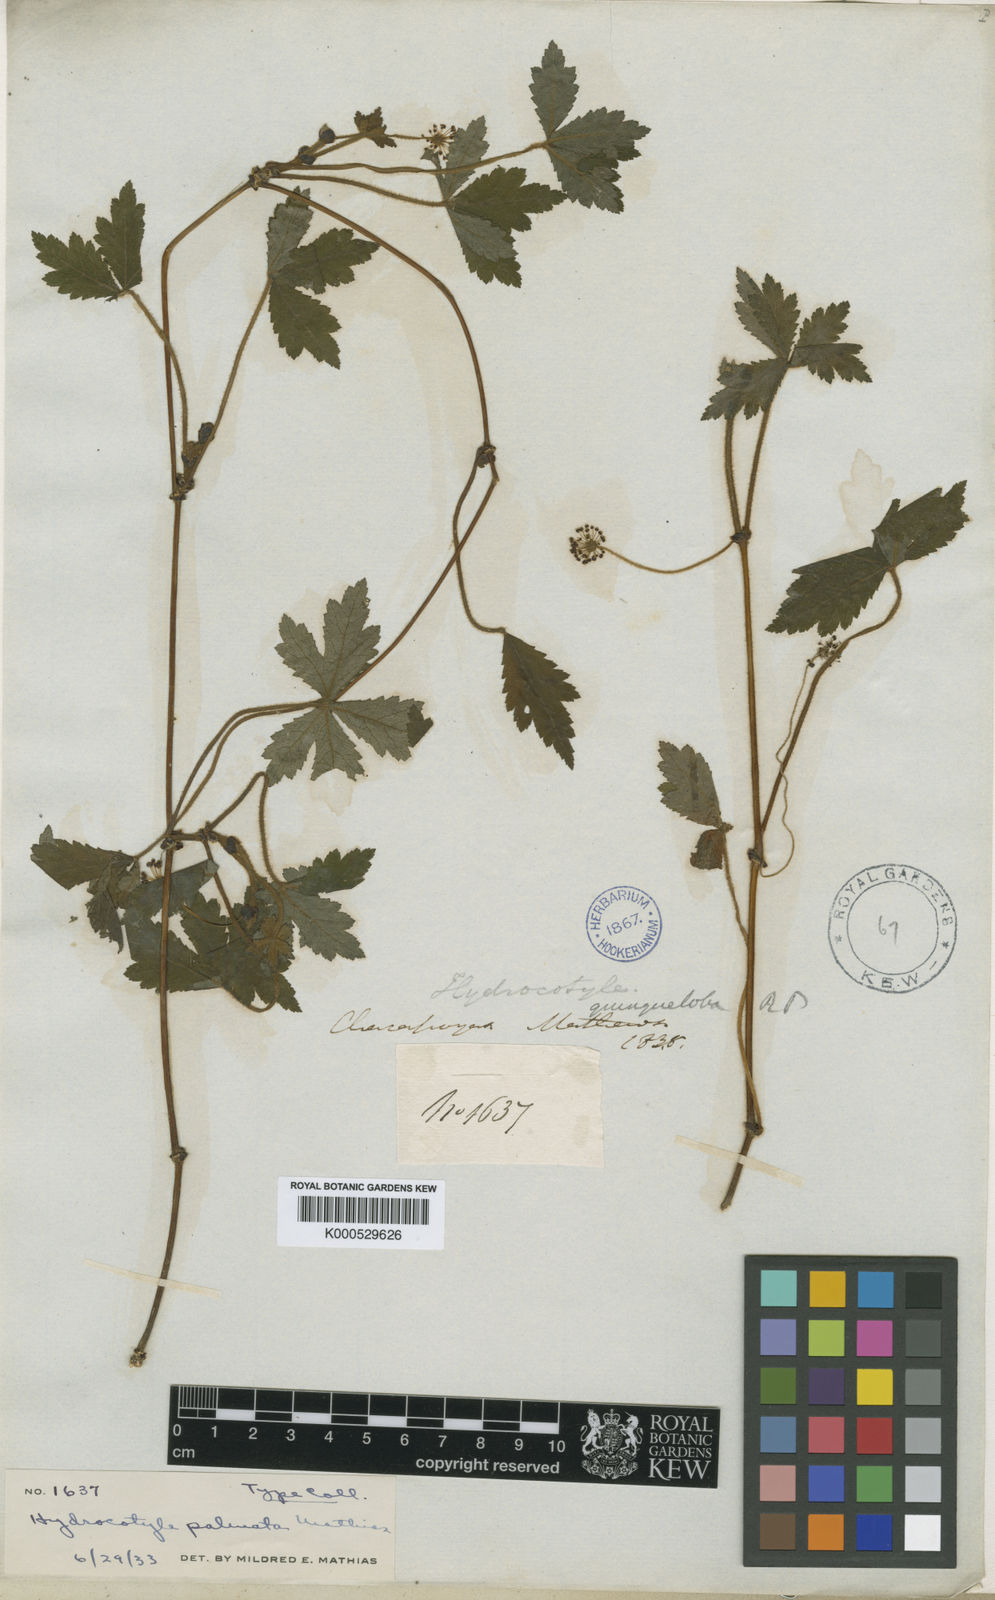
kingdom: Plantae
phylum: Tracheophyta
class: Magnoliopsida
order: Apiales
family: Araliaceae
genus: Hydrocotyle
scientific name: Hydrocotyle palmata
